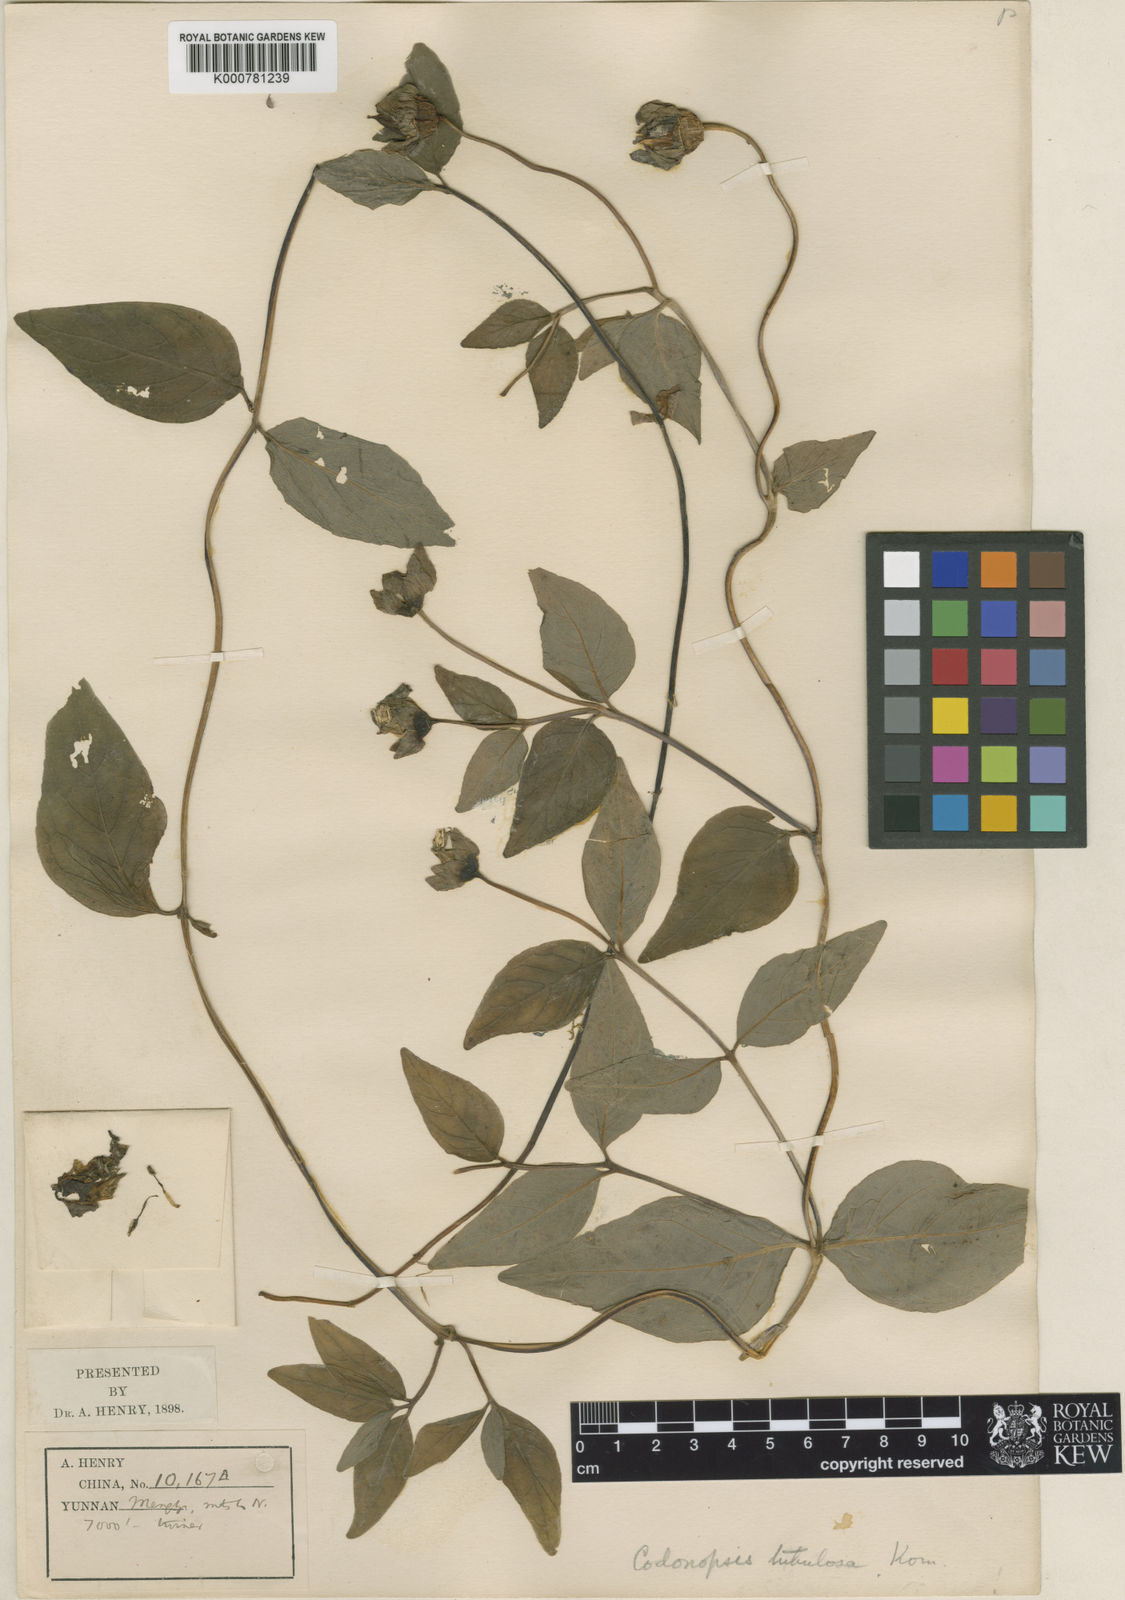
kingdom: Plantae
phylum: Tracheophyta
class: Magnoliopsida
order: Asterales
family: Campanulaceae
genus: Codonopsis
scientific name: Codonopsis tubulosa
